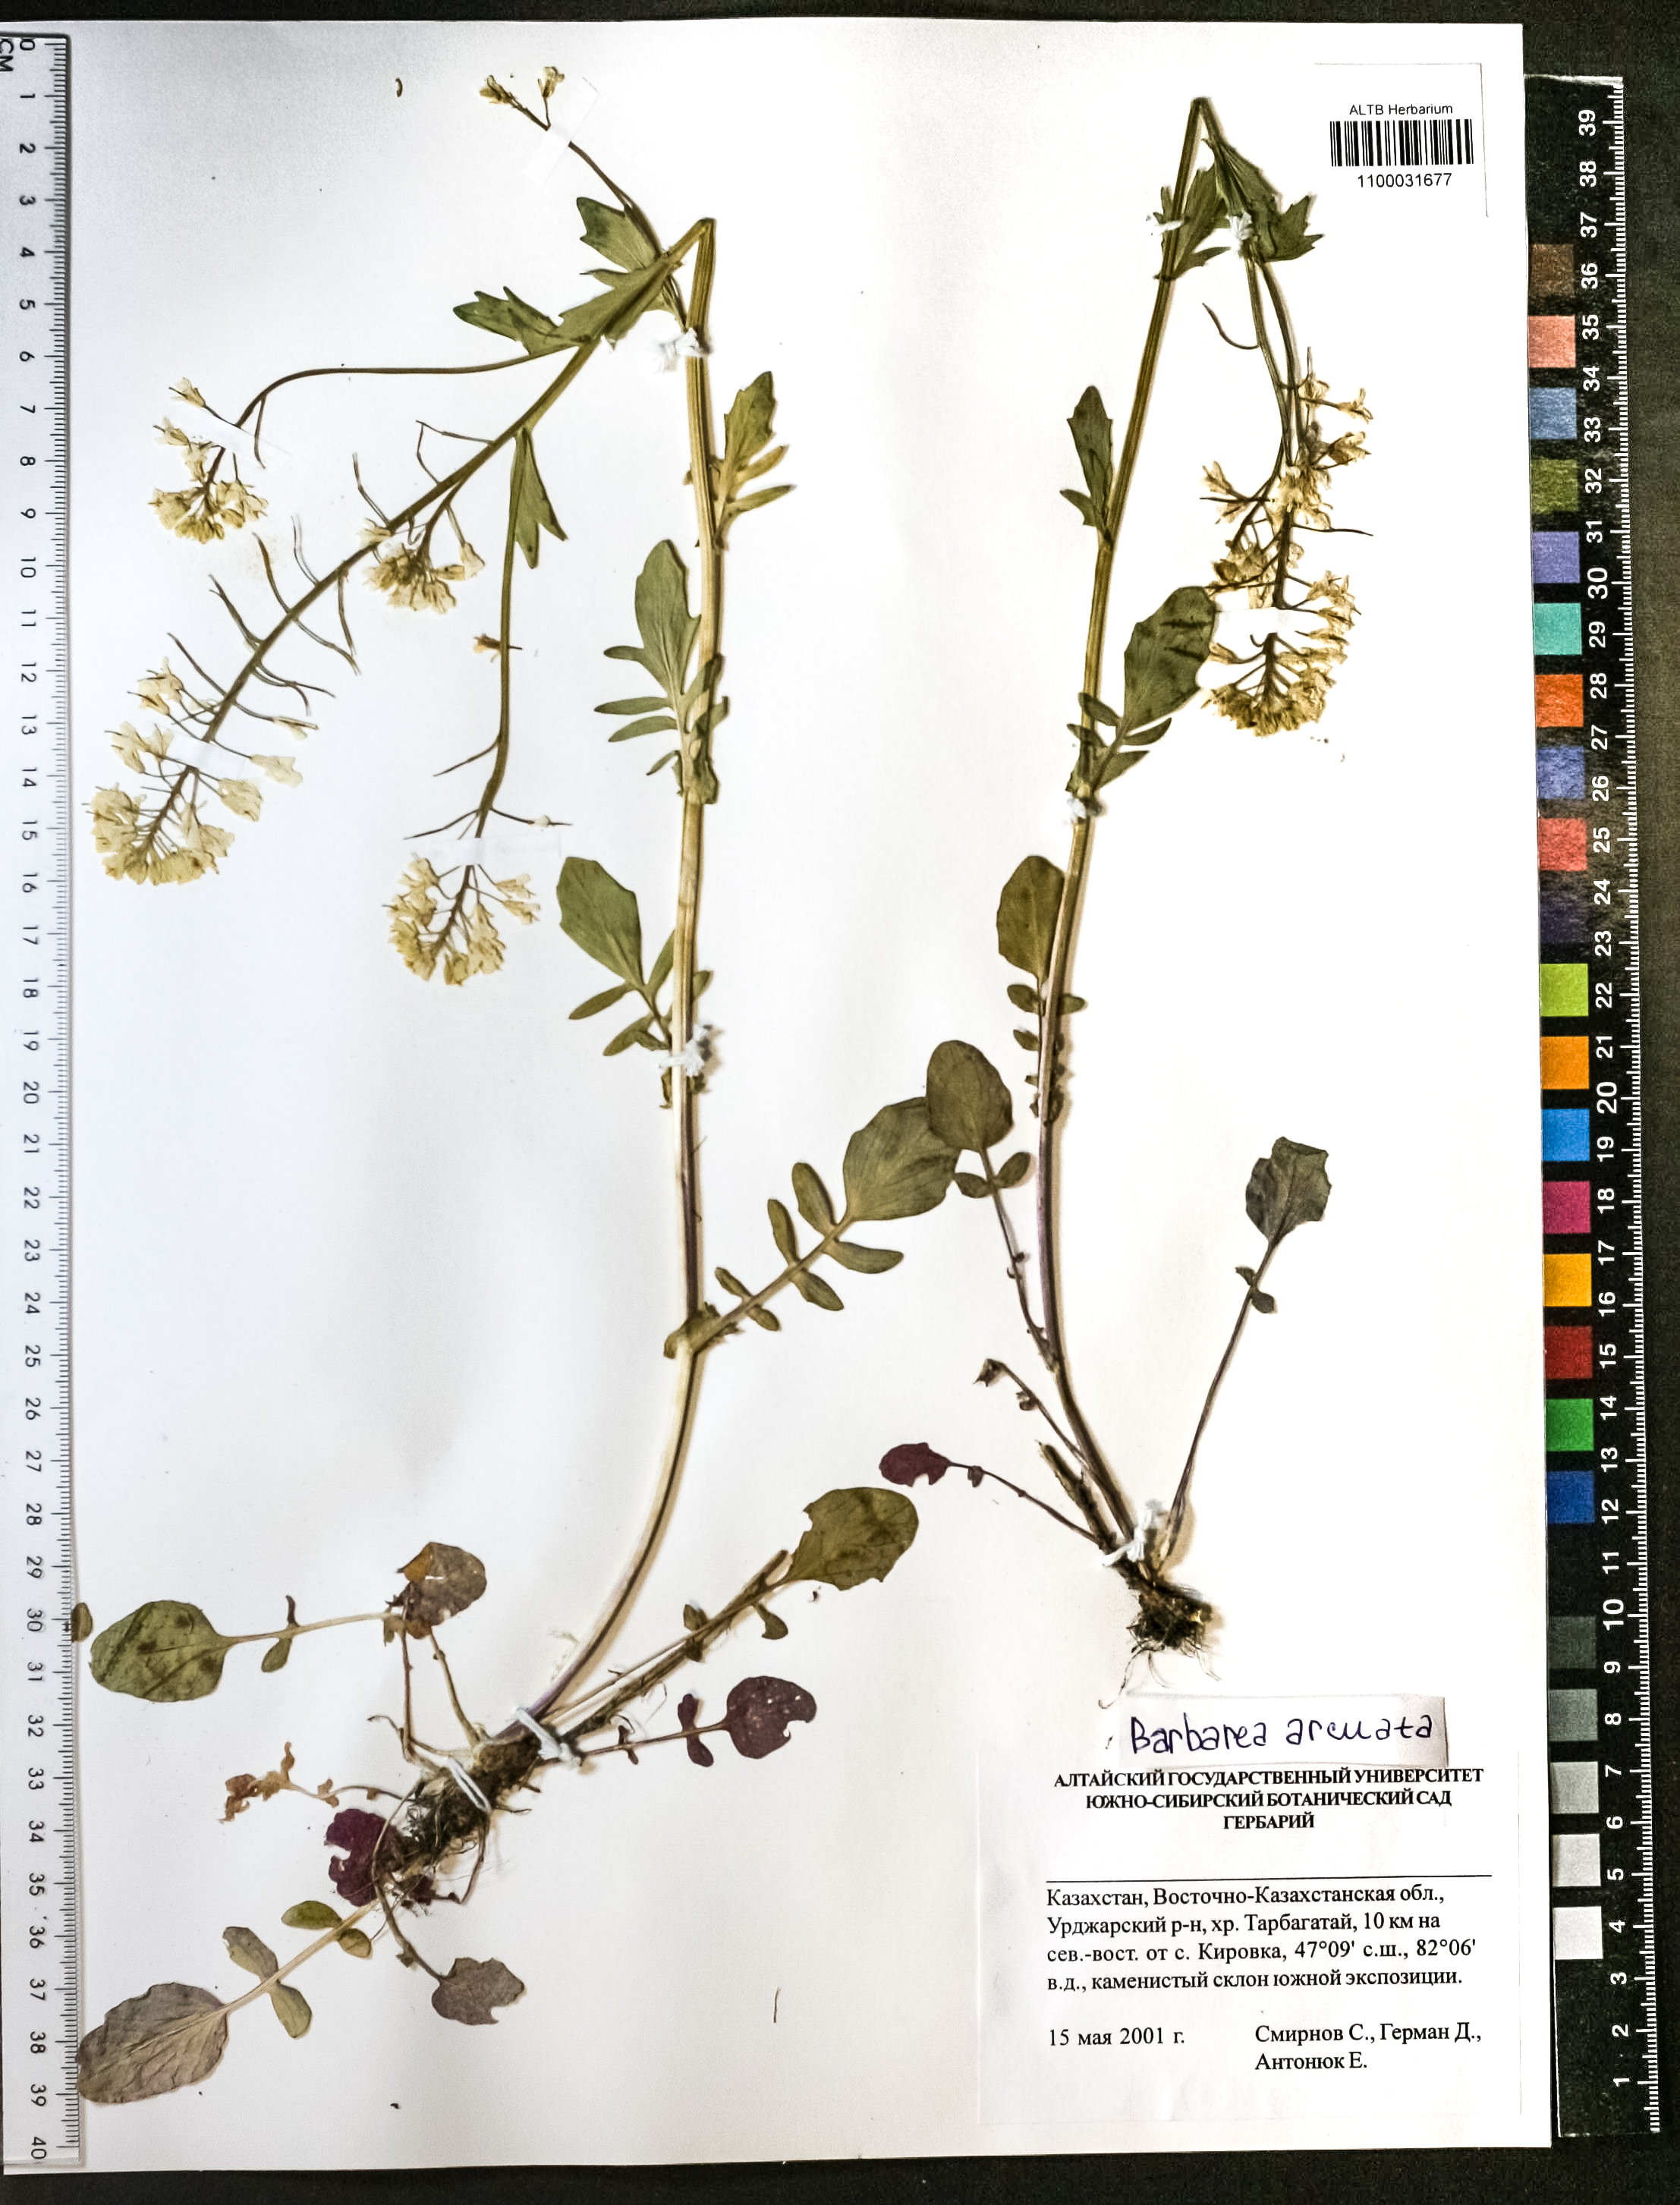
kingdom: Plantae
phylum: Tracheophyta
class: Magnoliopsida
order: Brassicales
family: Brassicaceae
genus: Barbarea
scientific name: Barbarea vulgaris
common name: Cressy-greens
